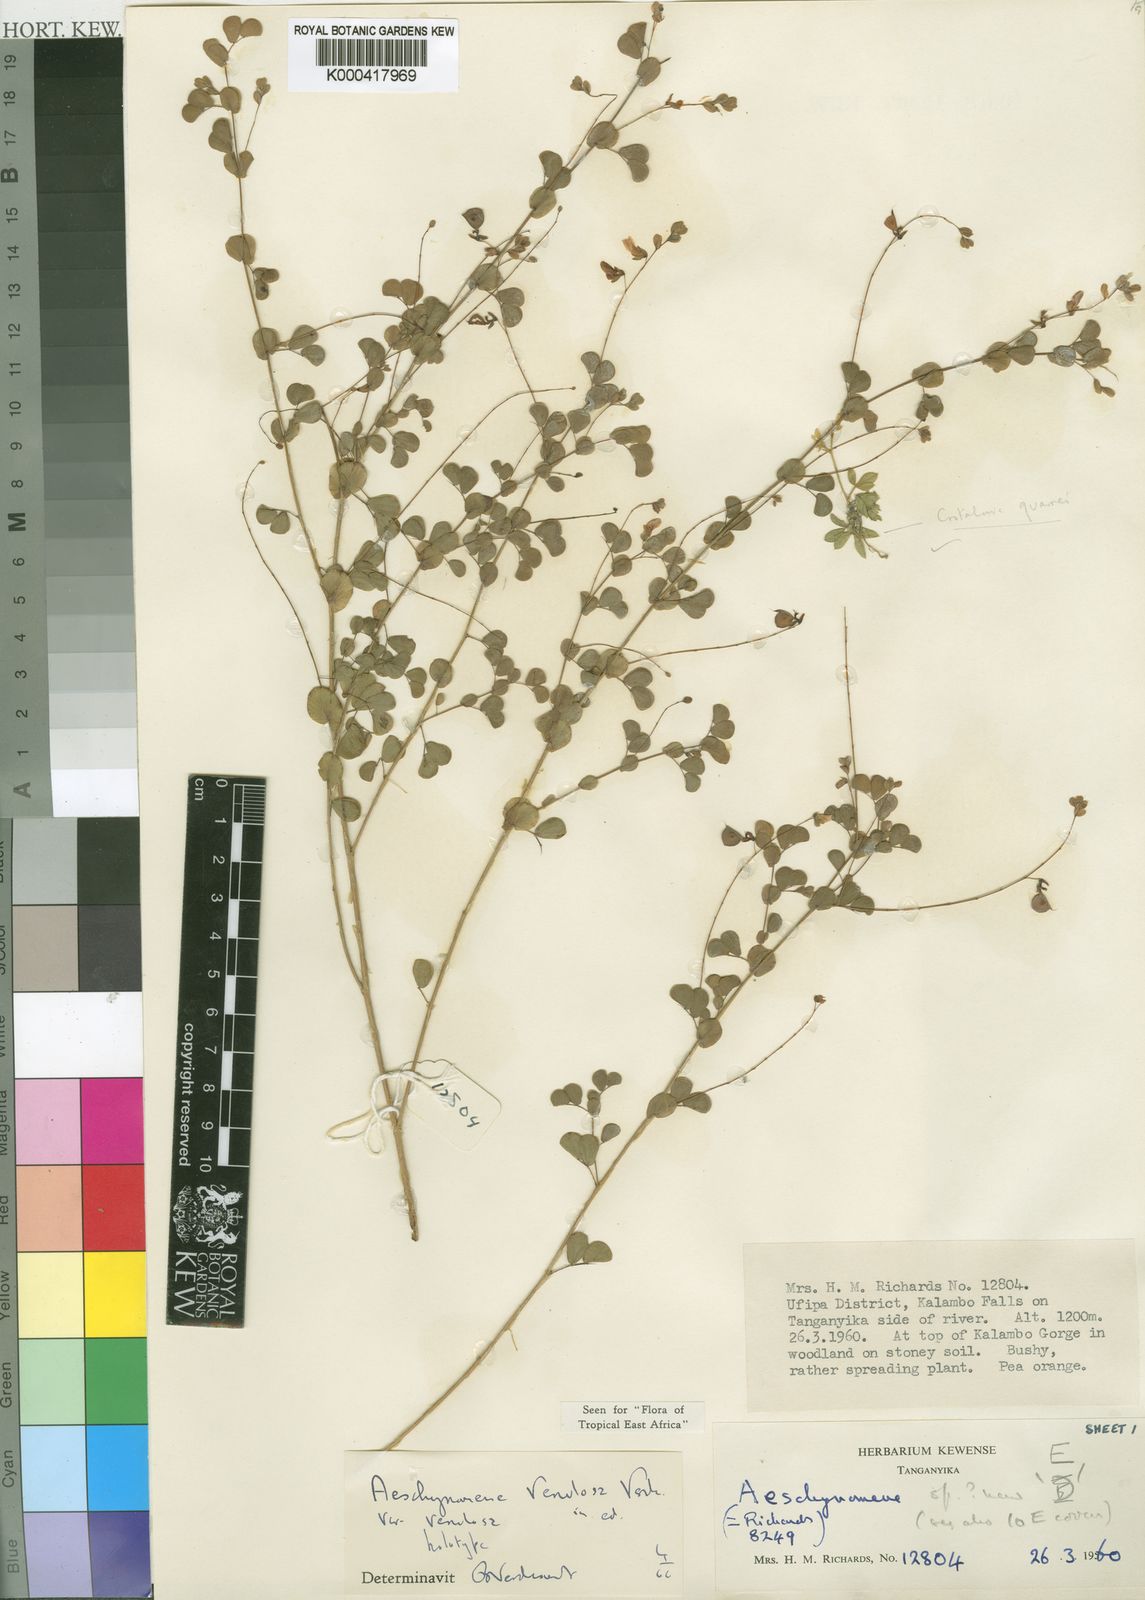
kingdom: Plantae
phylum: Tracheophyta
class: Magnoliopsida
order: Fabales
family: Fabaceae
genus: Aeschynomene
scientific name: Aeschynomene venulosa
